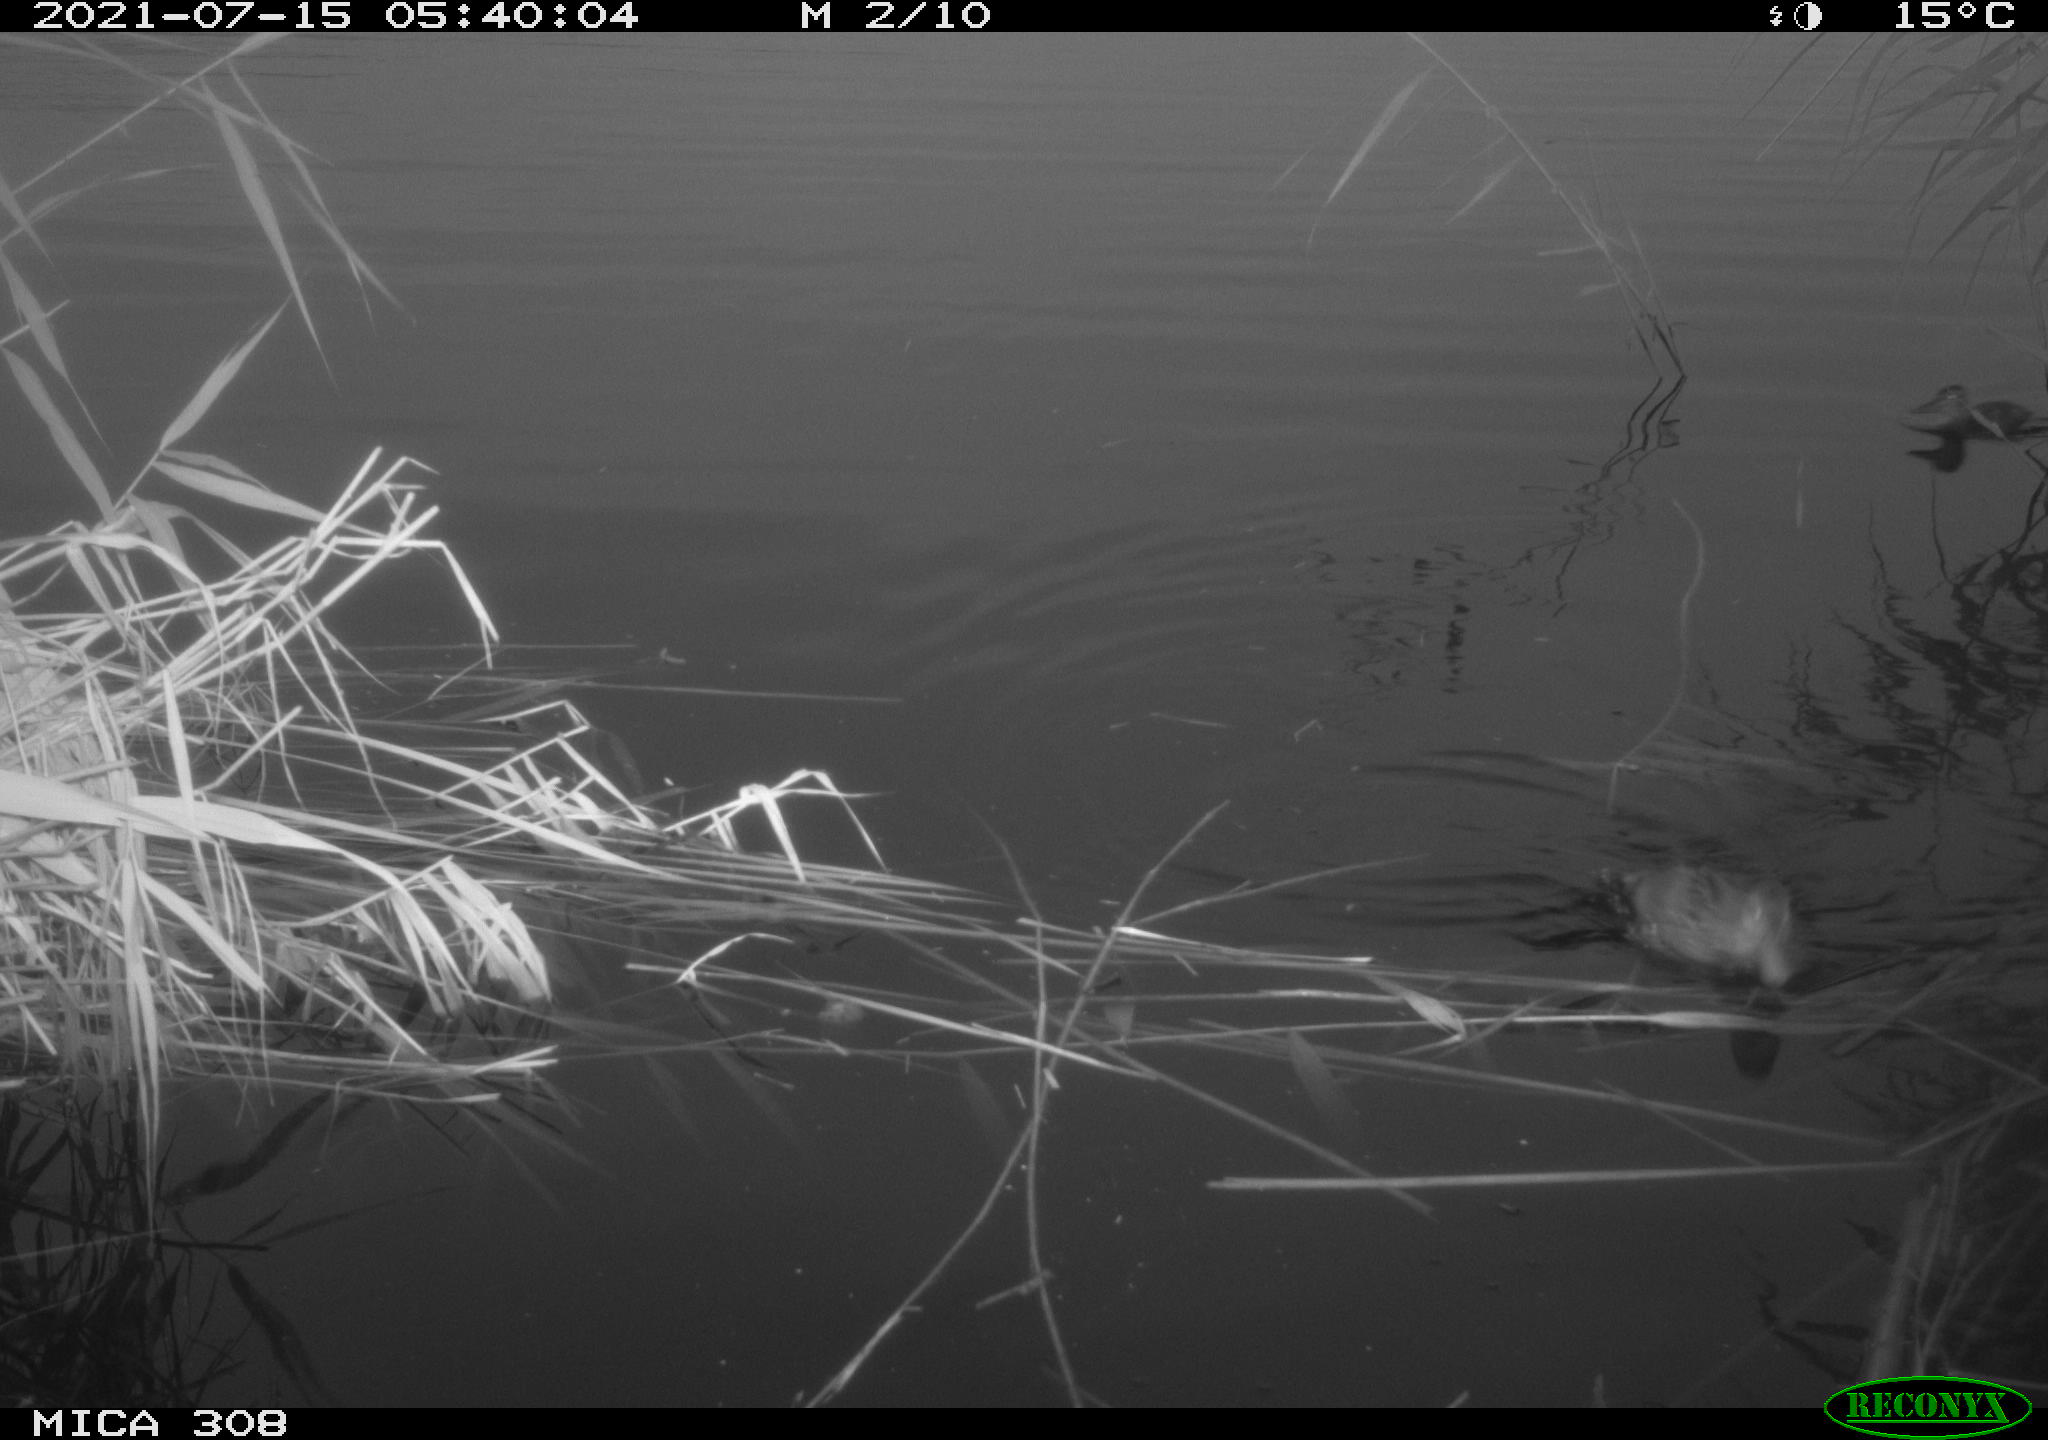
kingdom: Animalia
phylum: Chordata
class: Aves
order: Anseriformes
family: Anatidae
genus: Anas
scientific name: Anas platyrhynchos
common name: Mallard
